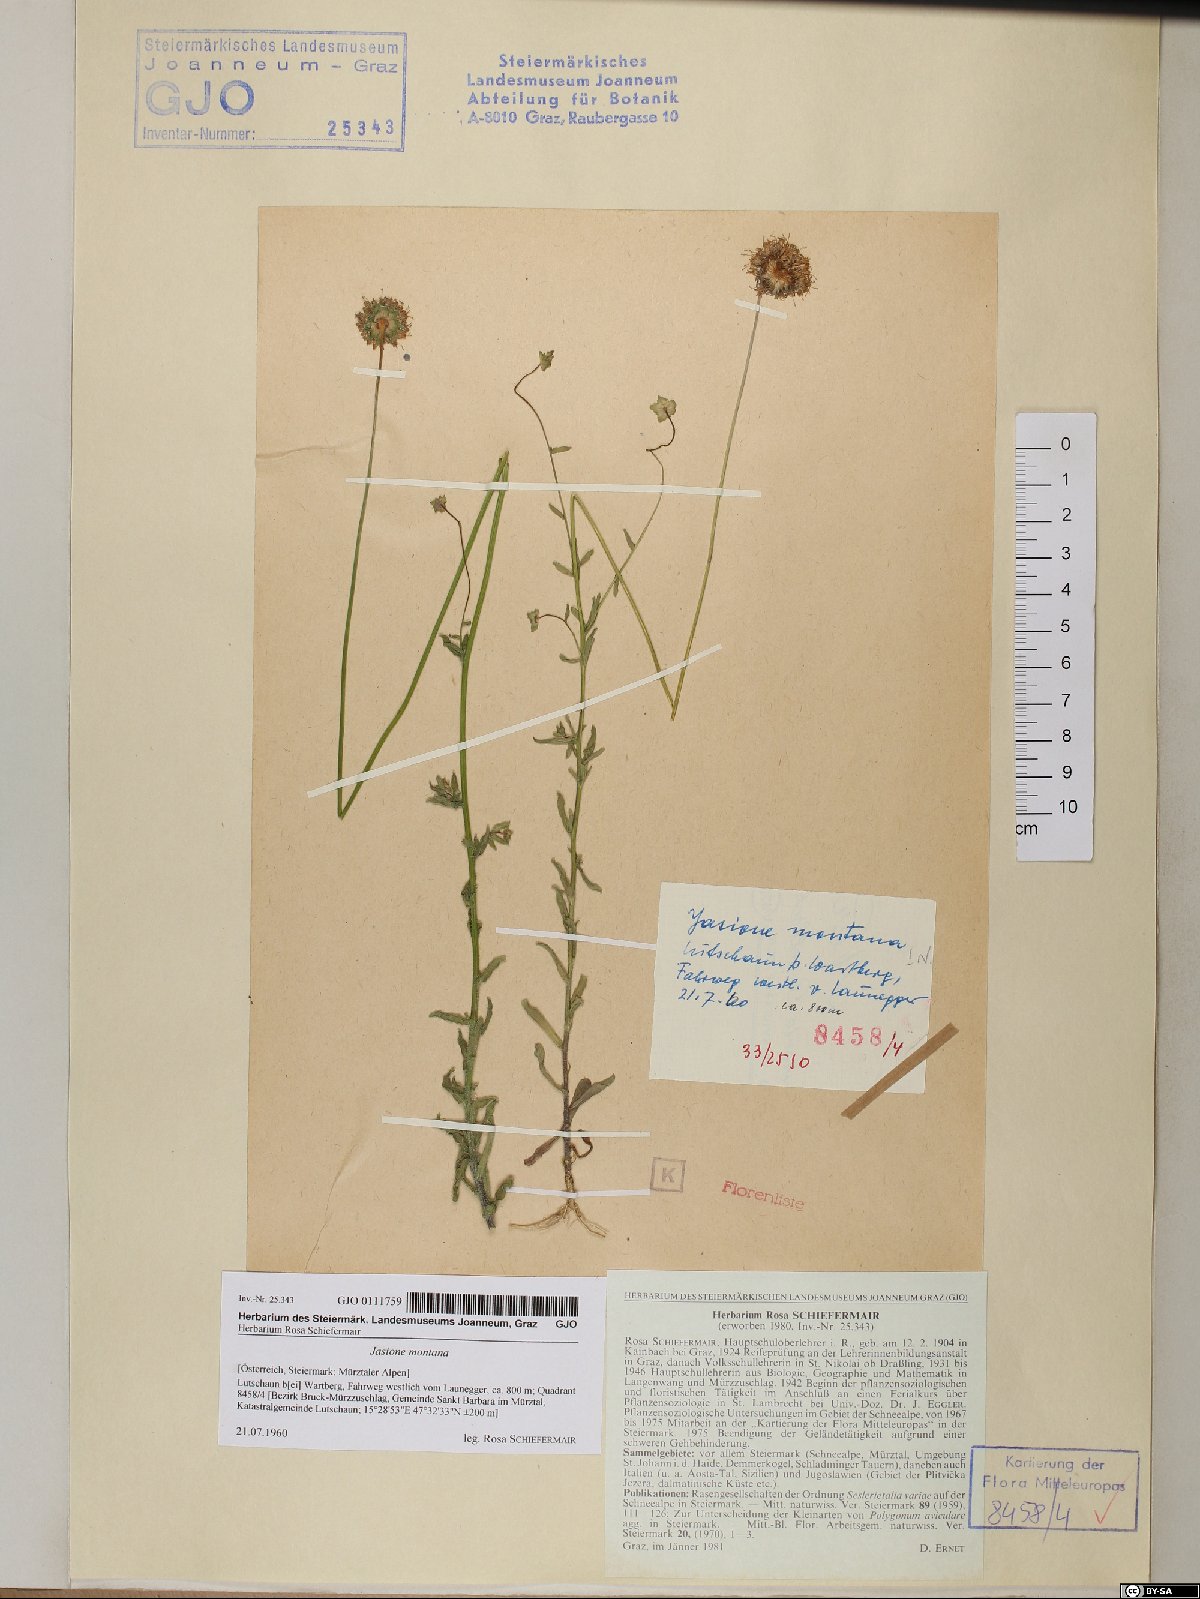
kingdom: Plantae
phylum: Tracheophyta
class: Magnoliopsida
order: Asterales
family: Campanulaceae
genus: Jasione
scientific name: Jasione montana
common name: Sheep's-bit
